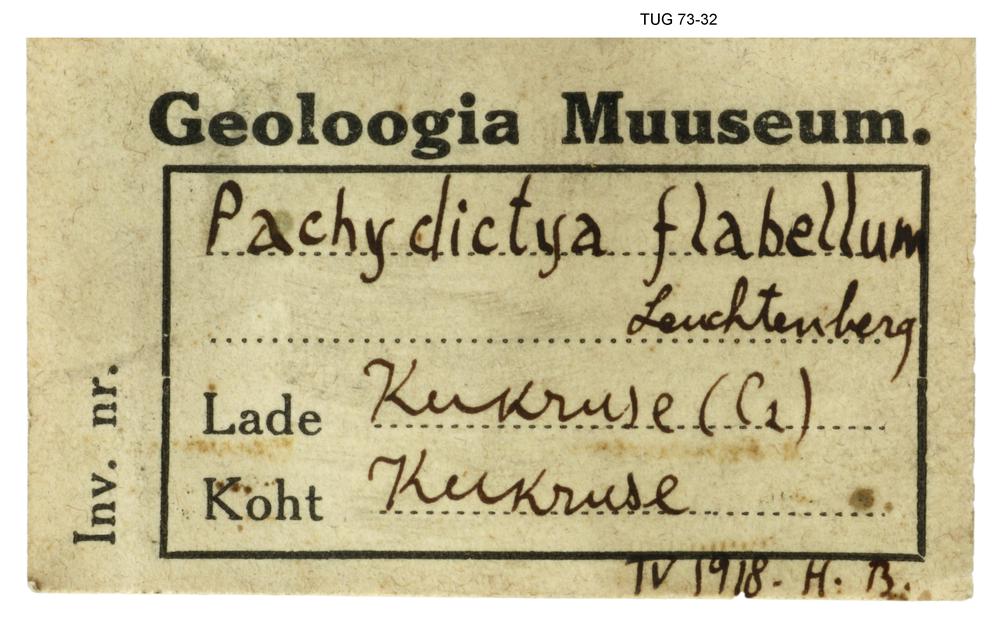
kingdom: Animalia
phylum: Bryozoa
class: Stenolaemata
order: Cryptostomida
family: Rhinidictyidae
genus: Pachydictya
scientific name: Pachydictya flabellum
